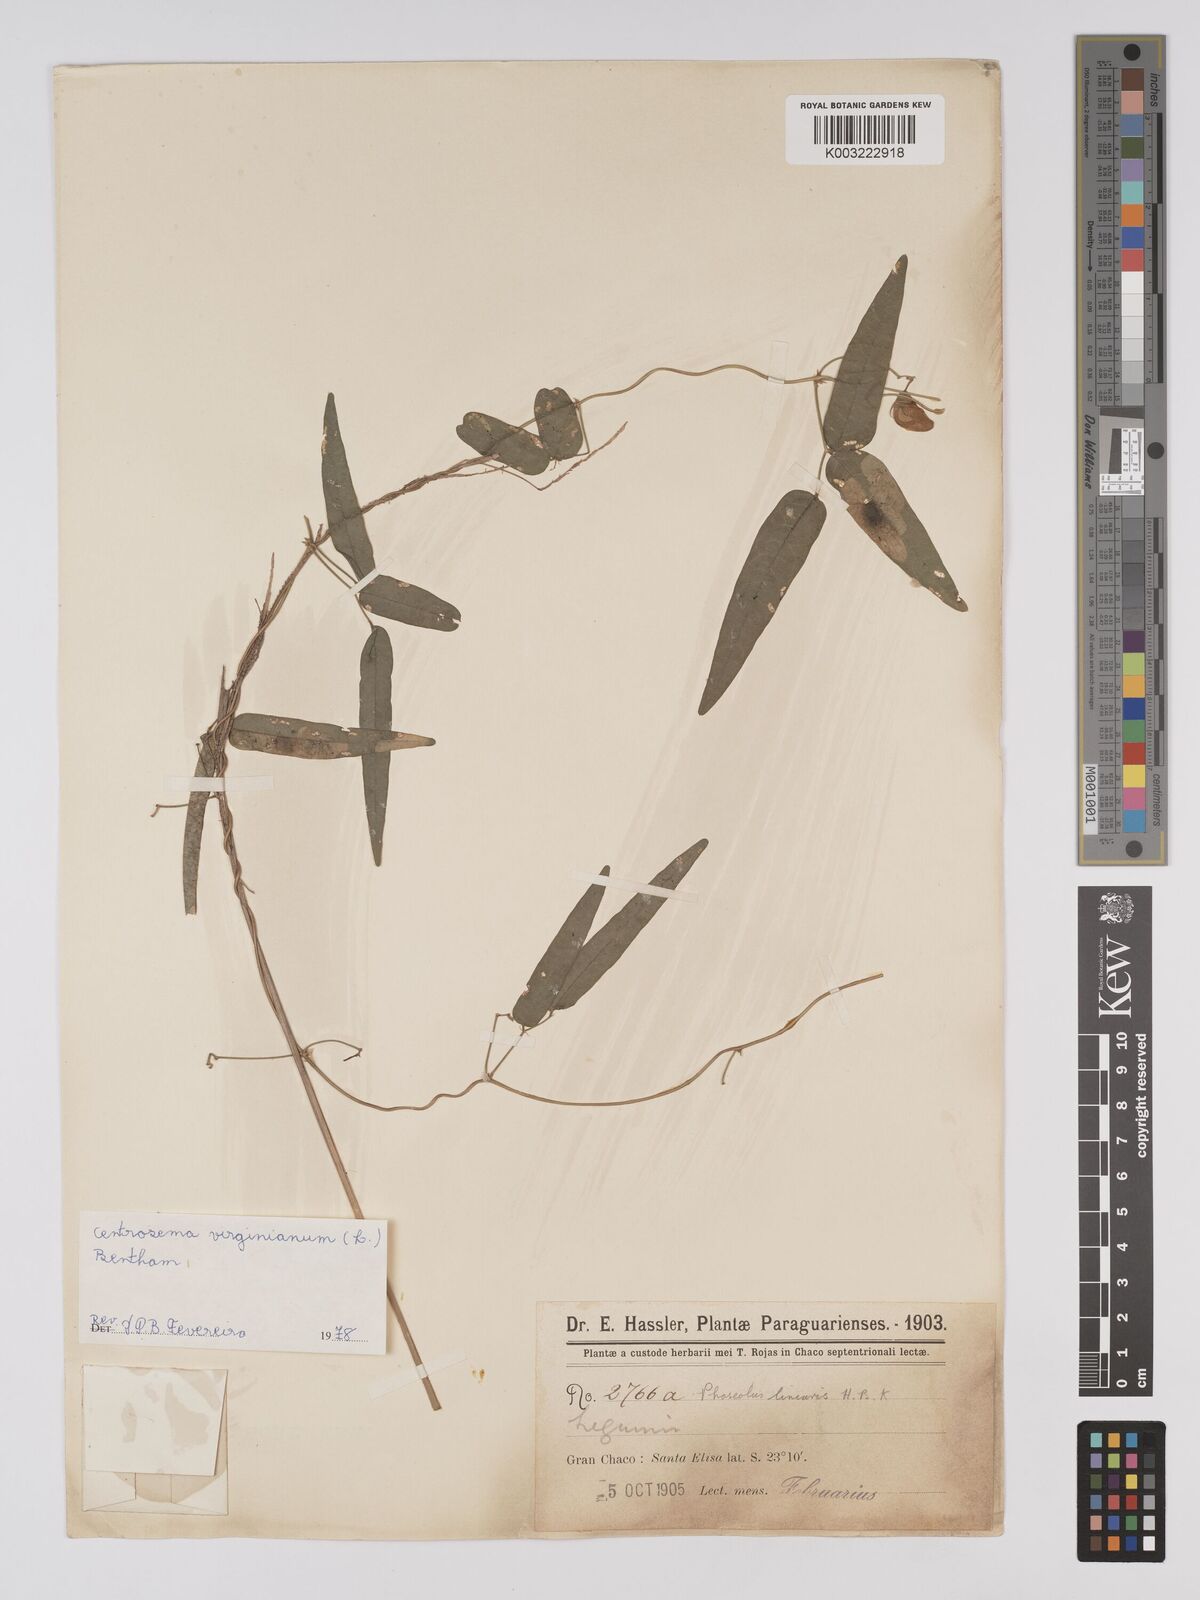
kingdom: Plantae
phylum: Tracheophyta
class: Magnoliopsida
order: Fabales
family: Fabaceae
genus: Centrosema
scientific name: Centrosema virginianum
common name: Butterfly-pea
